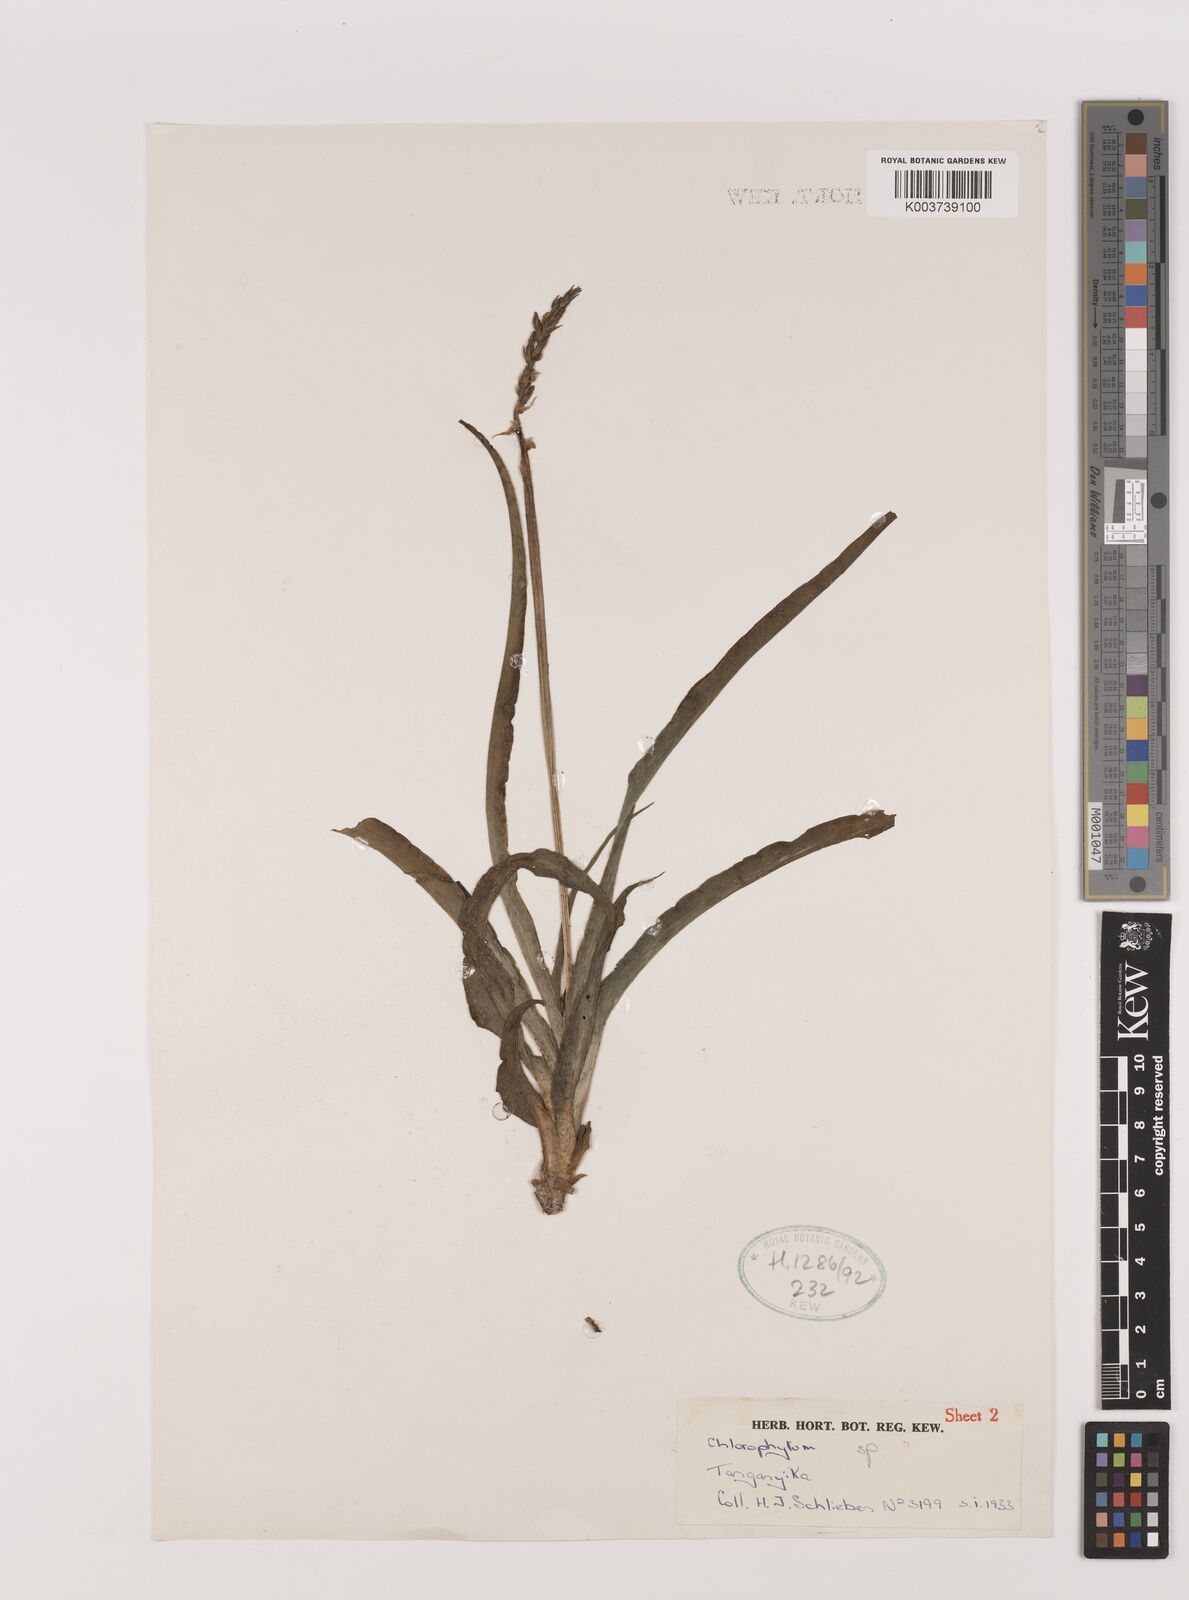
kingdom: Plantae
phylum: Tracheophyta
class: Liliopsida
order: Asparagales
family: Asparagaceae
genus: Chlorophytum
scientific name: Chlorophytum
